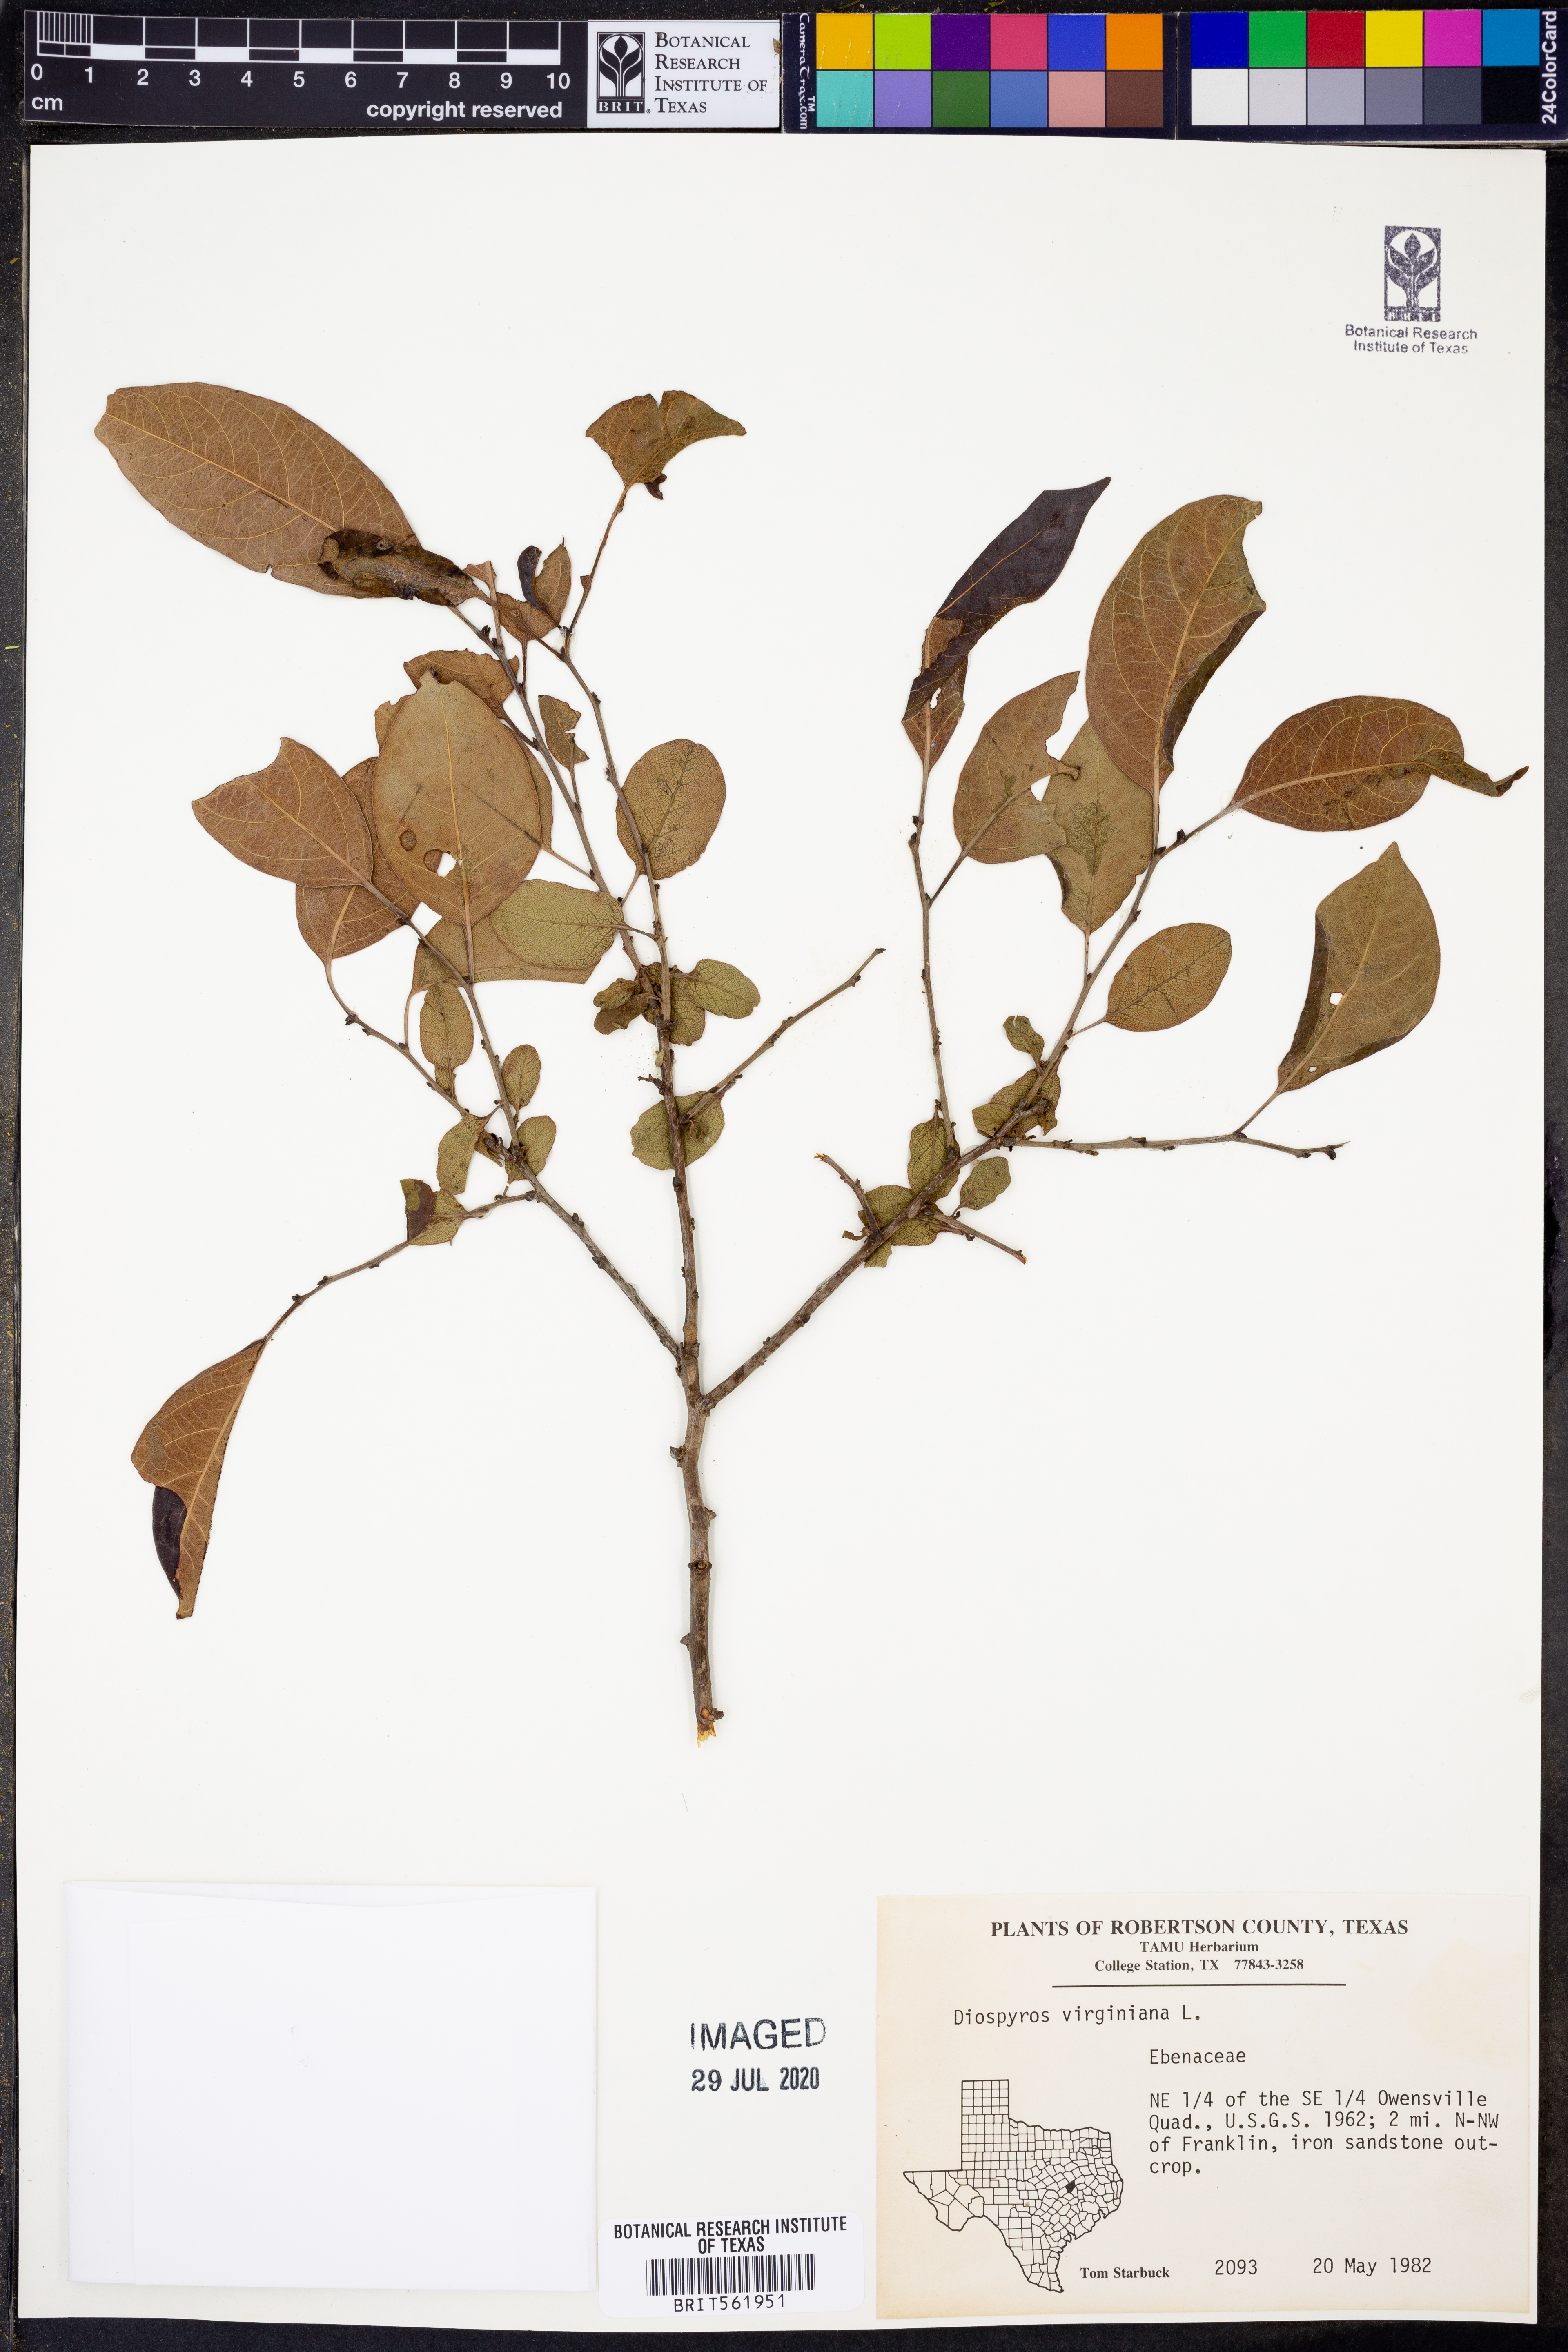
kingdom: Plantae
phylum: Tracheophyta
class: Magnoliopsida
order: Ericales
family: Ebenaceae
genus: Diospyros
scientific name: Diospyros virginiana
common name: Persimmon
